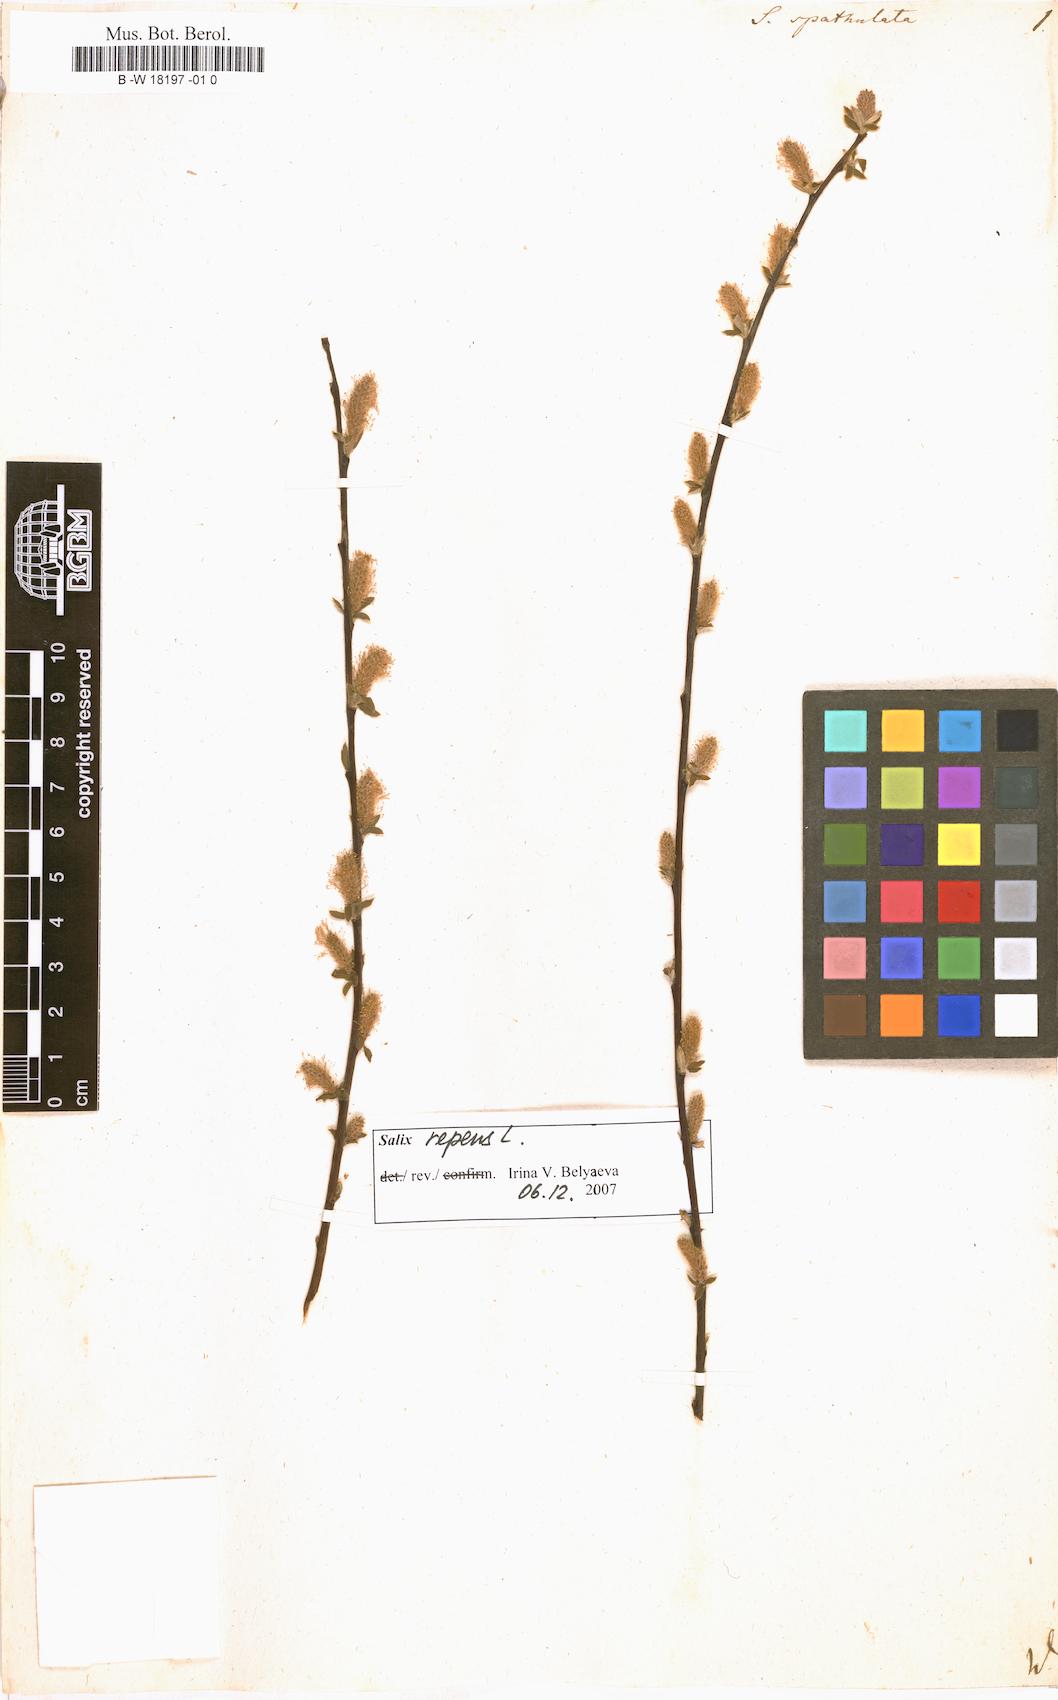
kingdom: Plantae
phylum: Tracheophyta
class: Magnoliopsida
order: Malpighiales
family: Salicaceae
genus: Salix
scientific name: Salix
